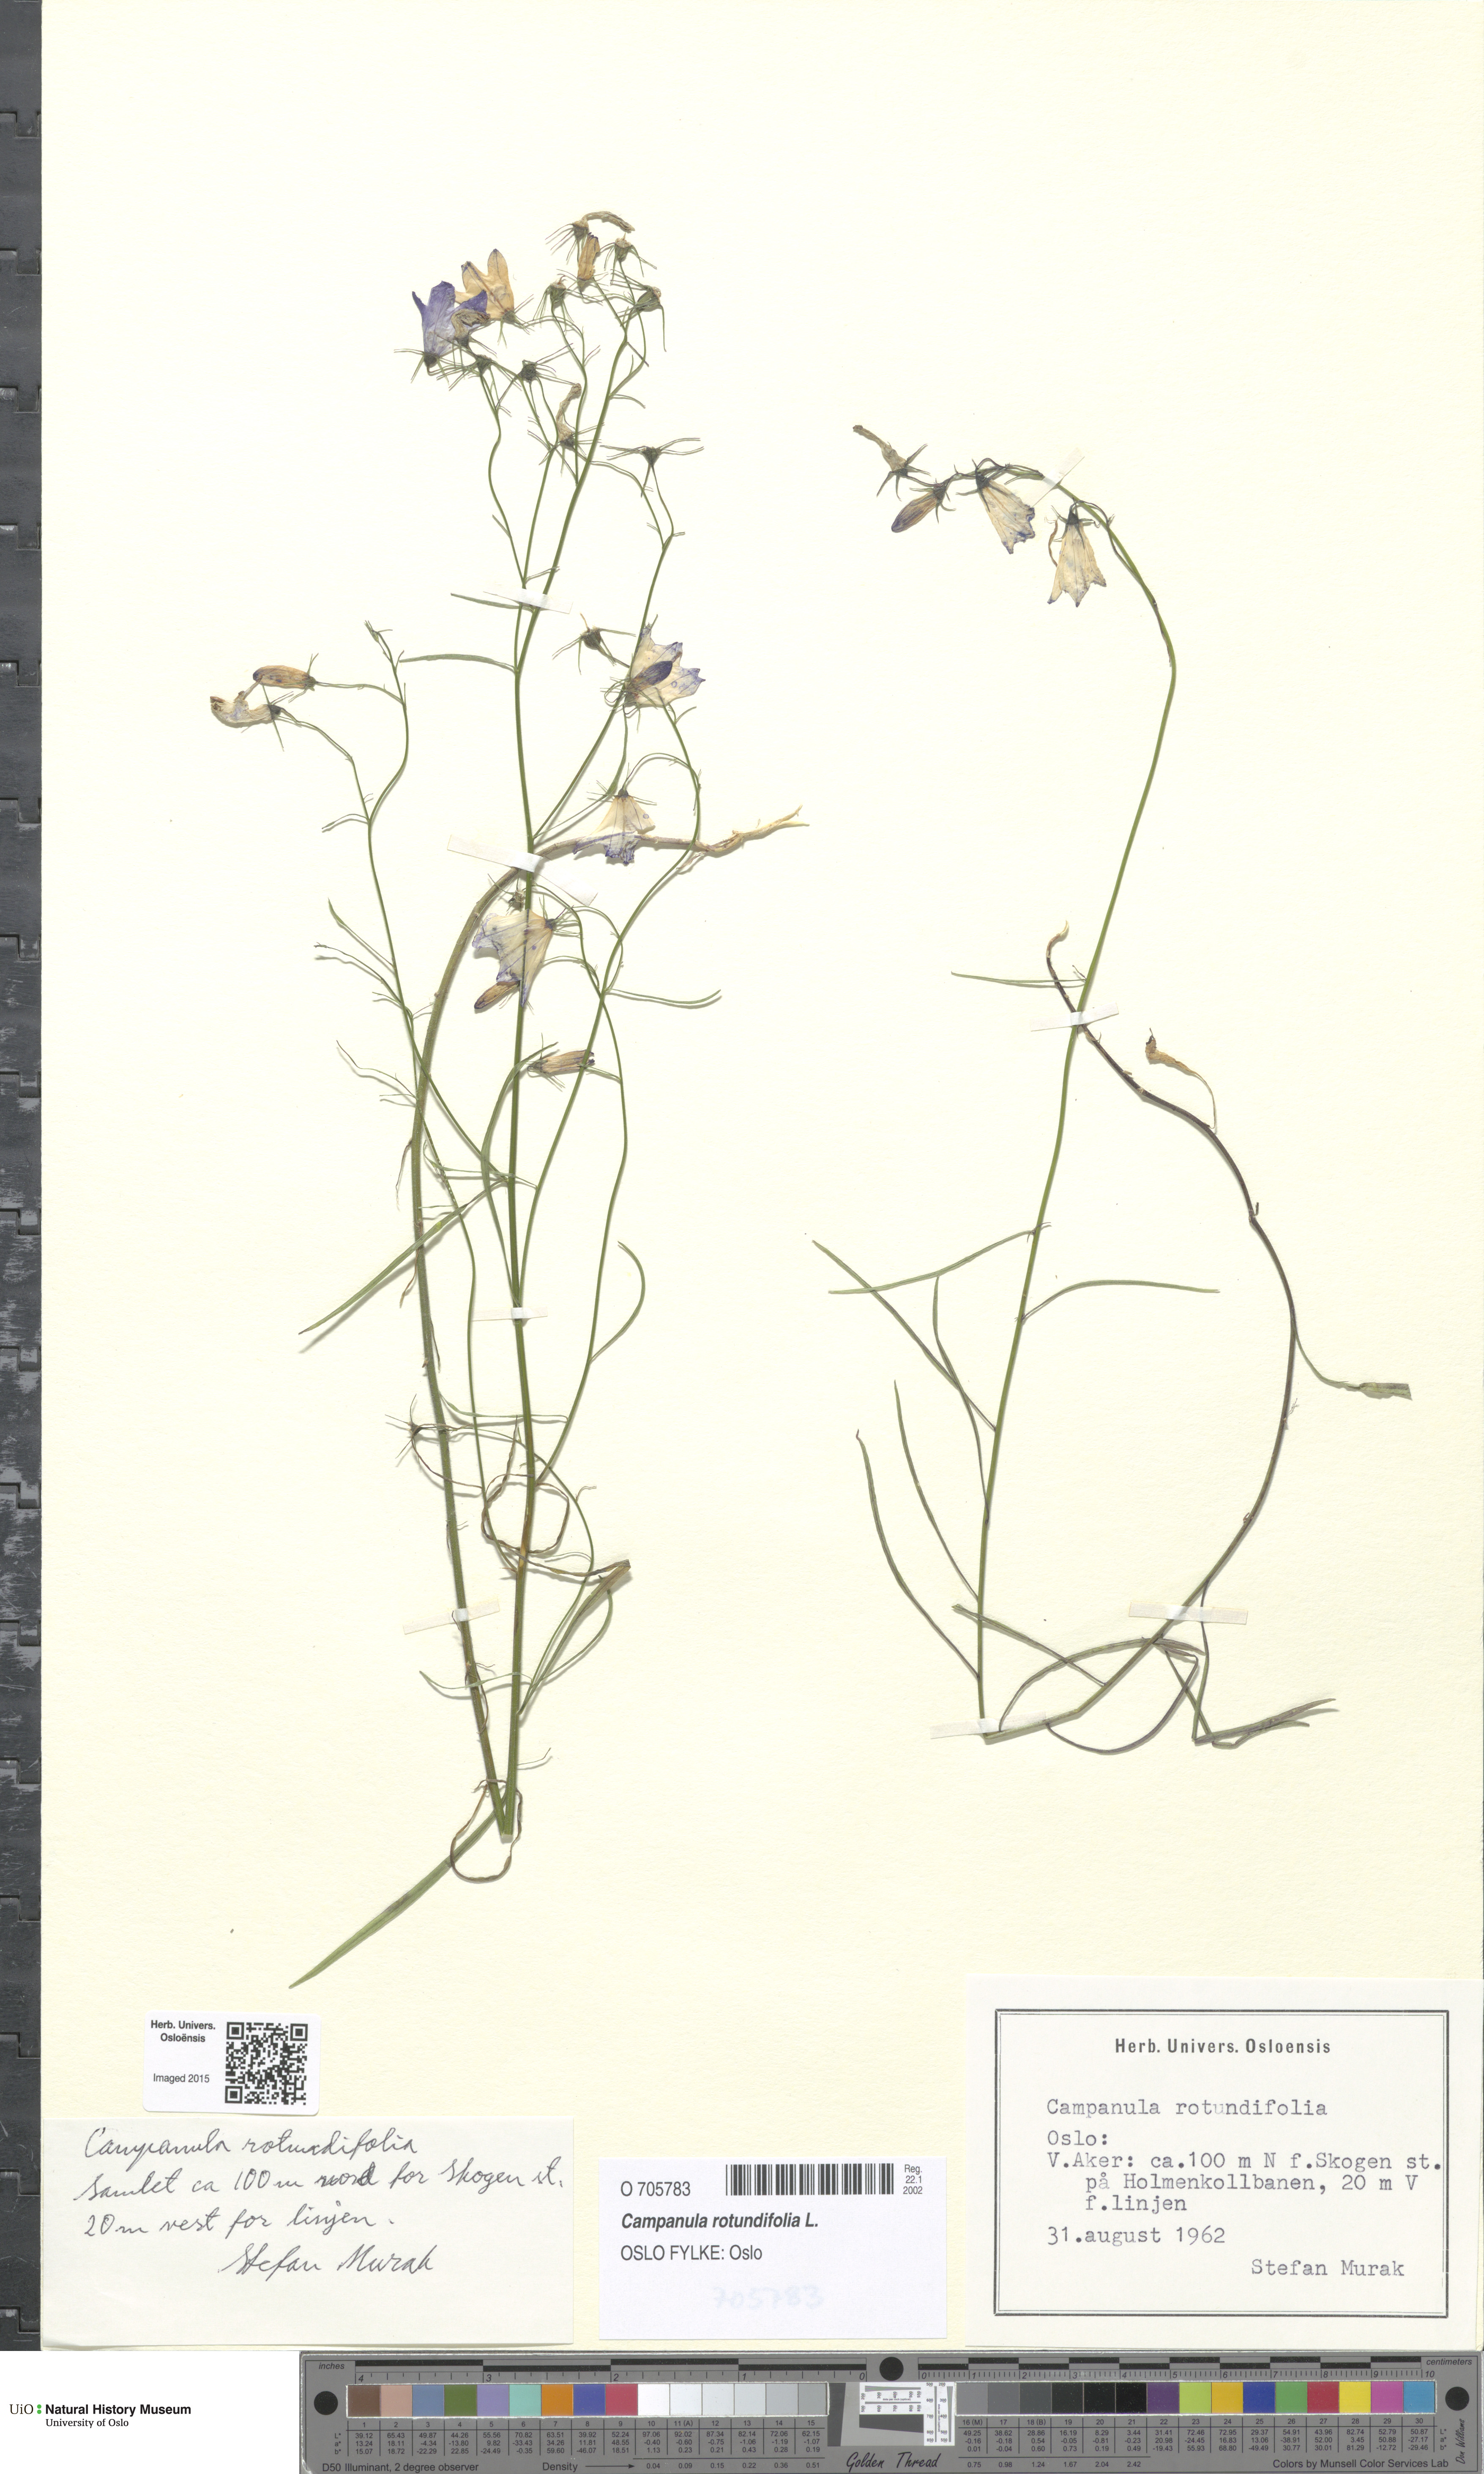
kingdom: Plantae
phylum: Tracheophyta
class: Magnoliopsida
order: Asterales
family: Campanulaceae
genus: Campanula
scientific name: Campanula rotundifolia
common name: Harebell
